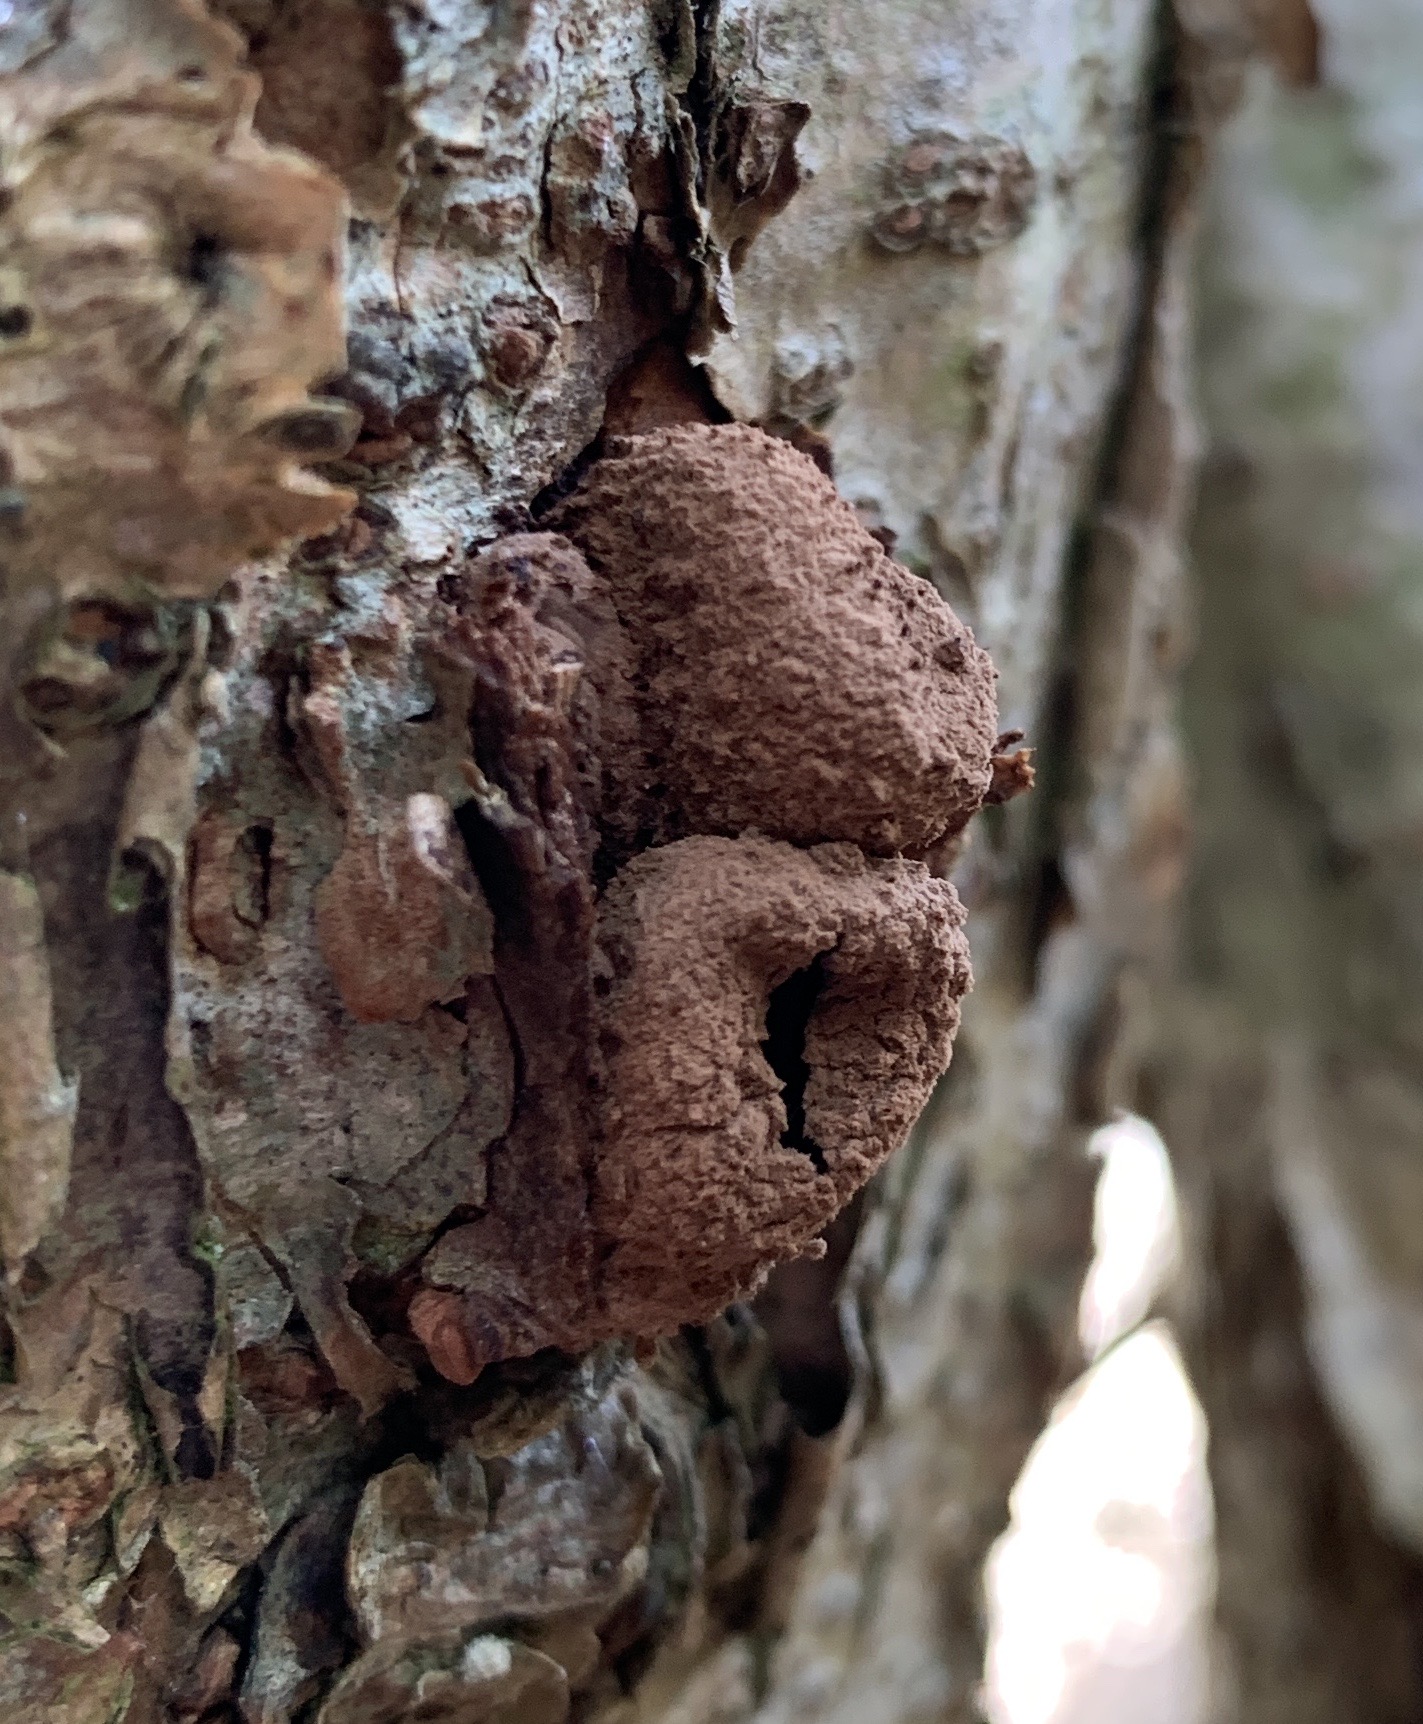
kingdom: Fungi
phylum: Ascomycota
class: Leotiomycetes
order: Helotiales
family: Cenangiaceae
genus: Encoelia
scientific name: Encoelia furfuracea
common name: hassel-læderskive
